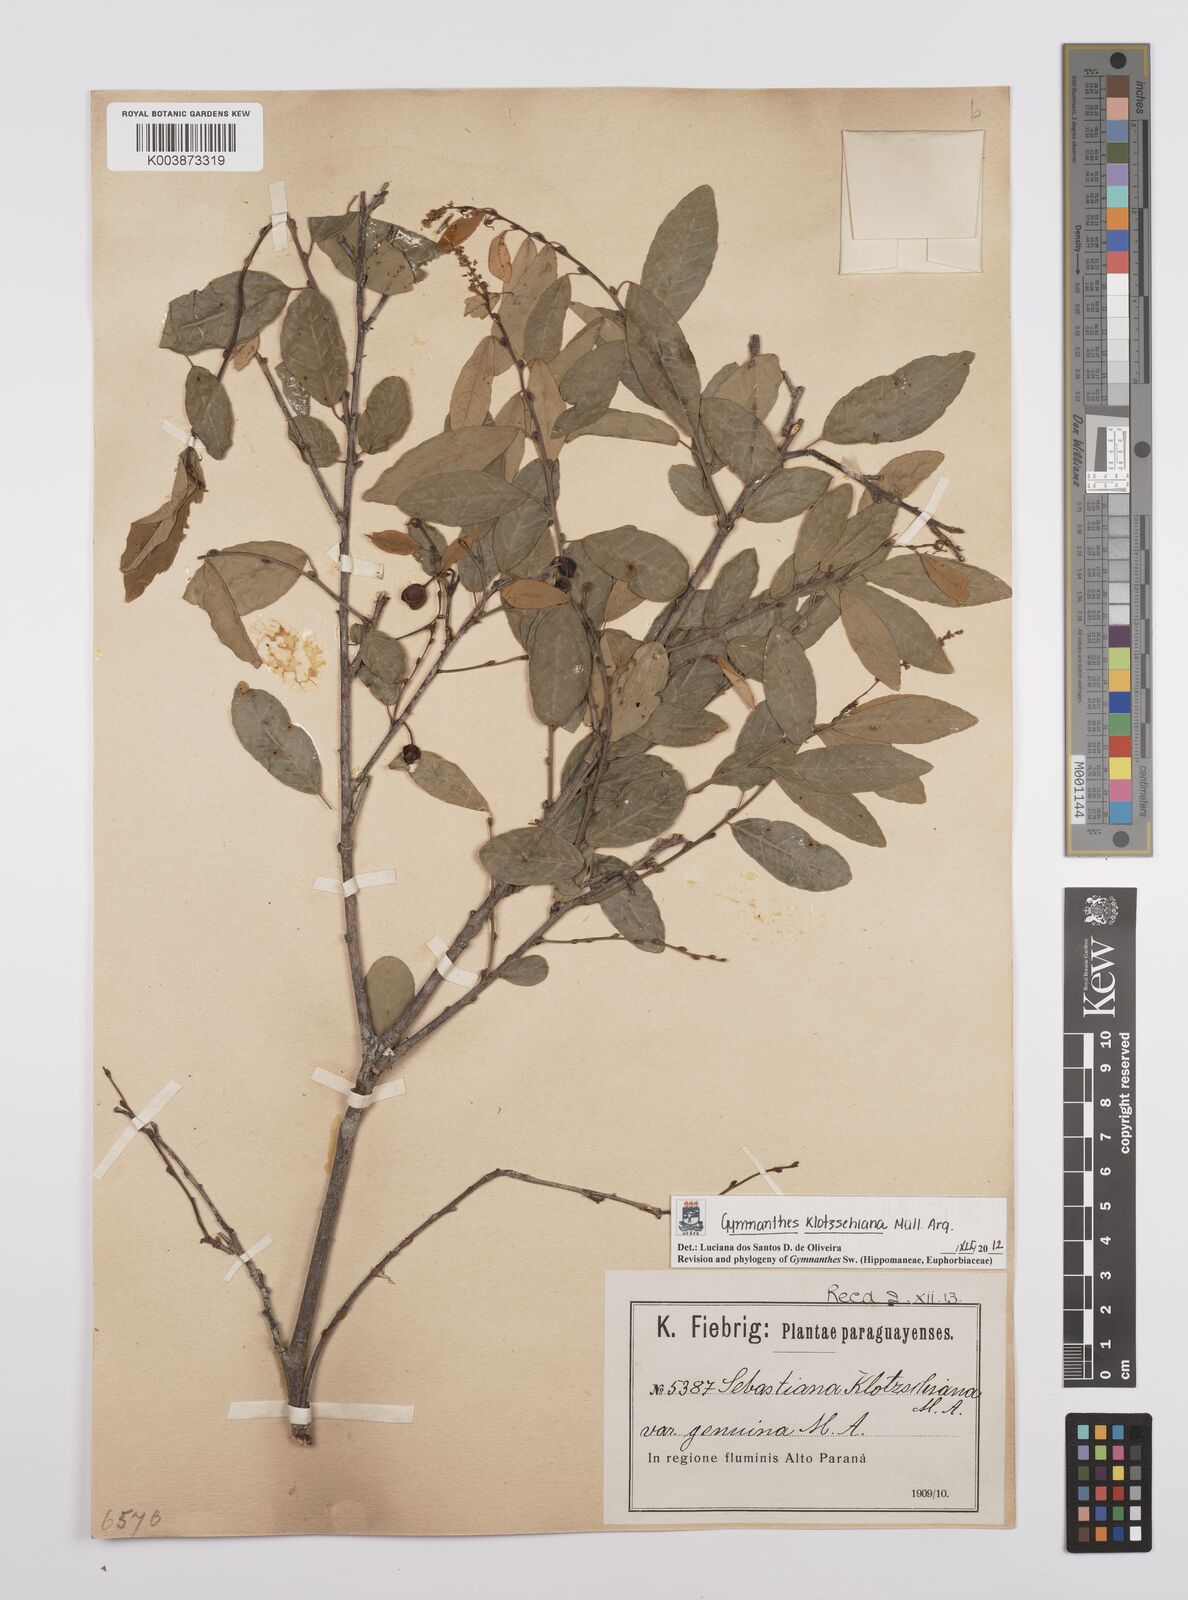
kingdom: Plantae
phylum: Tracheophyta
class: Magnoliopsida
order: Malpighiales
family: Euphorbiaceae
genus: Sebastiania
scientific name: Sebastiania klotzschiana
